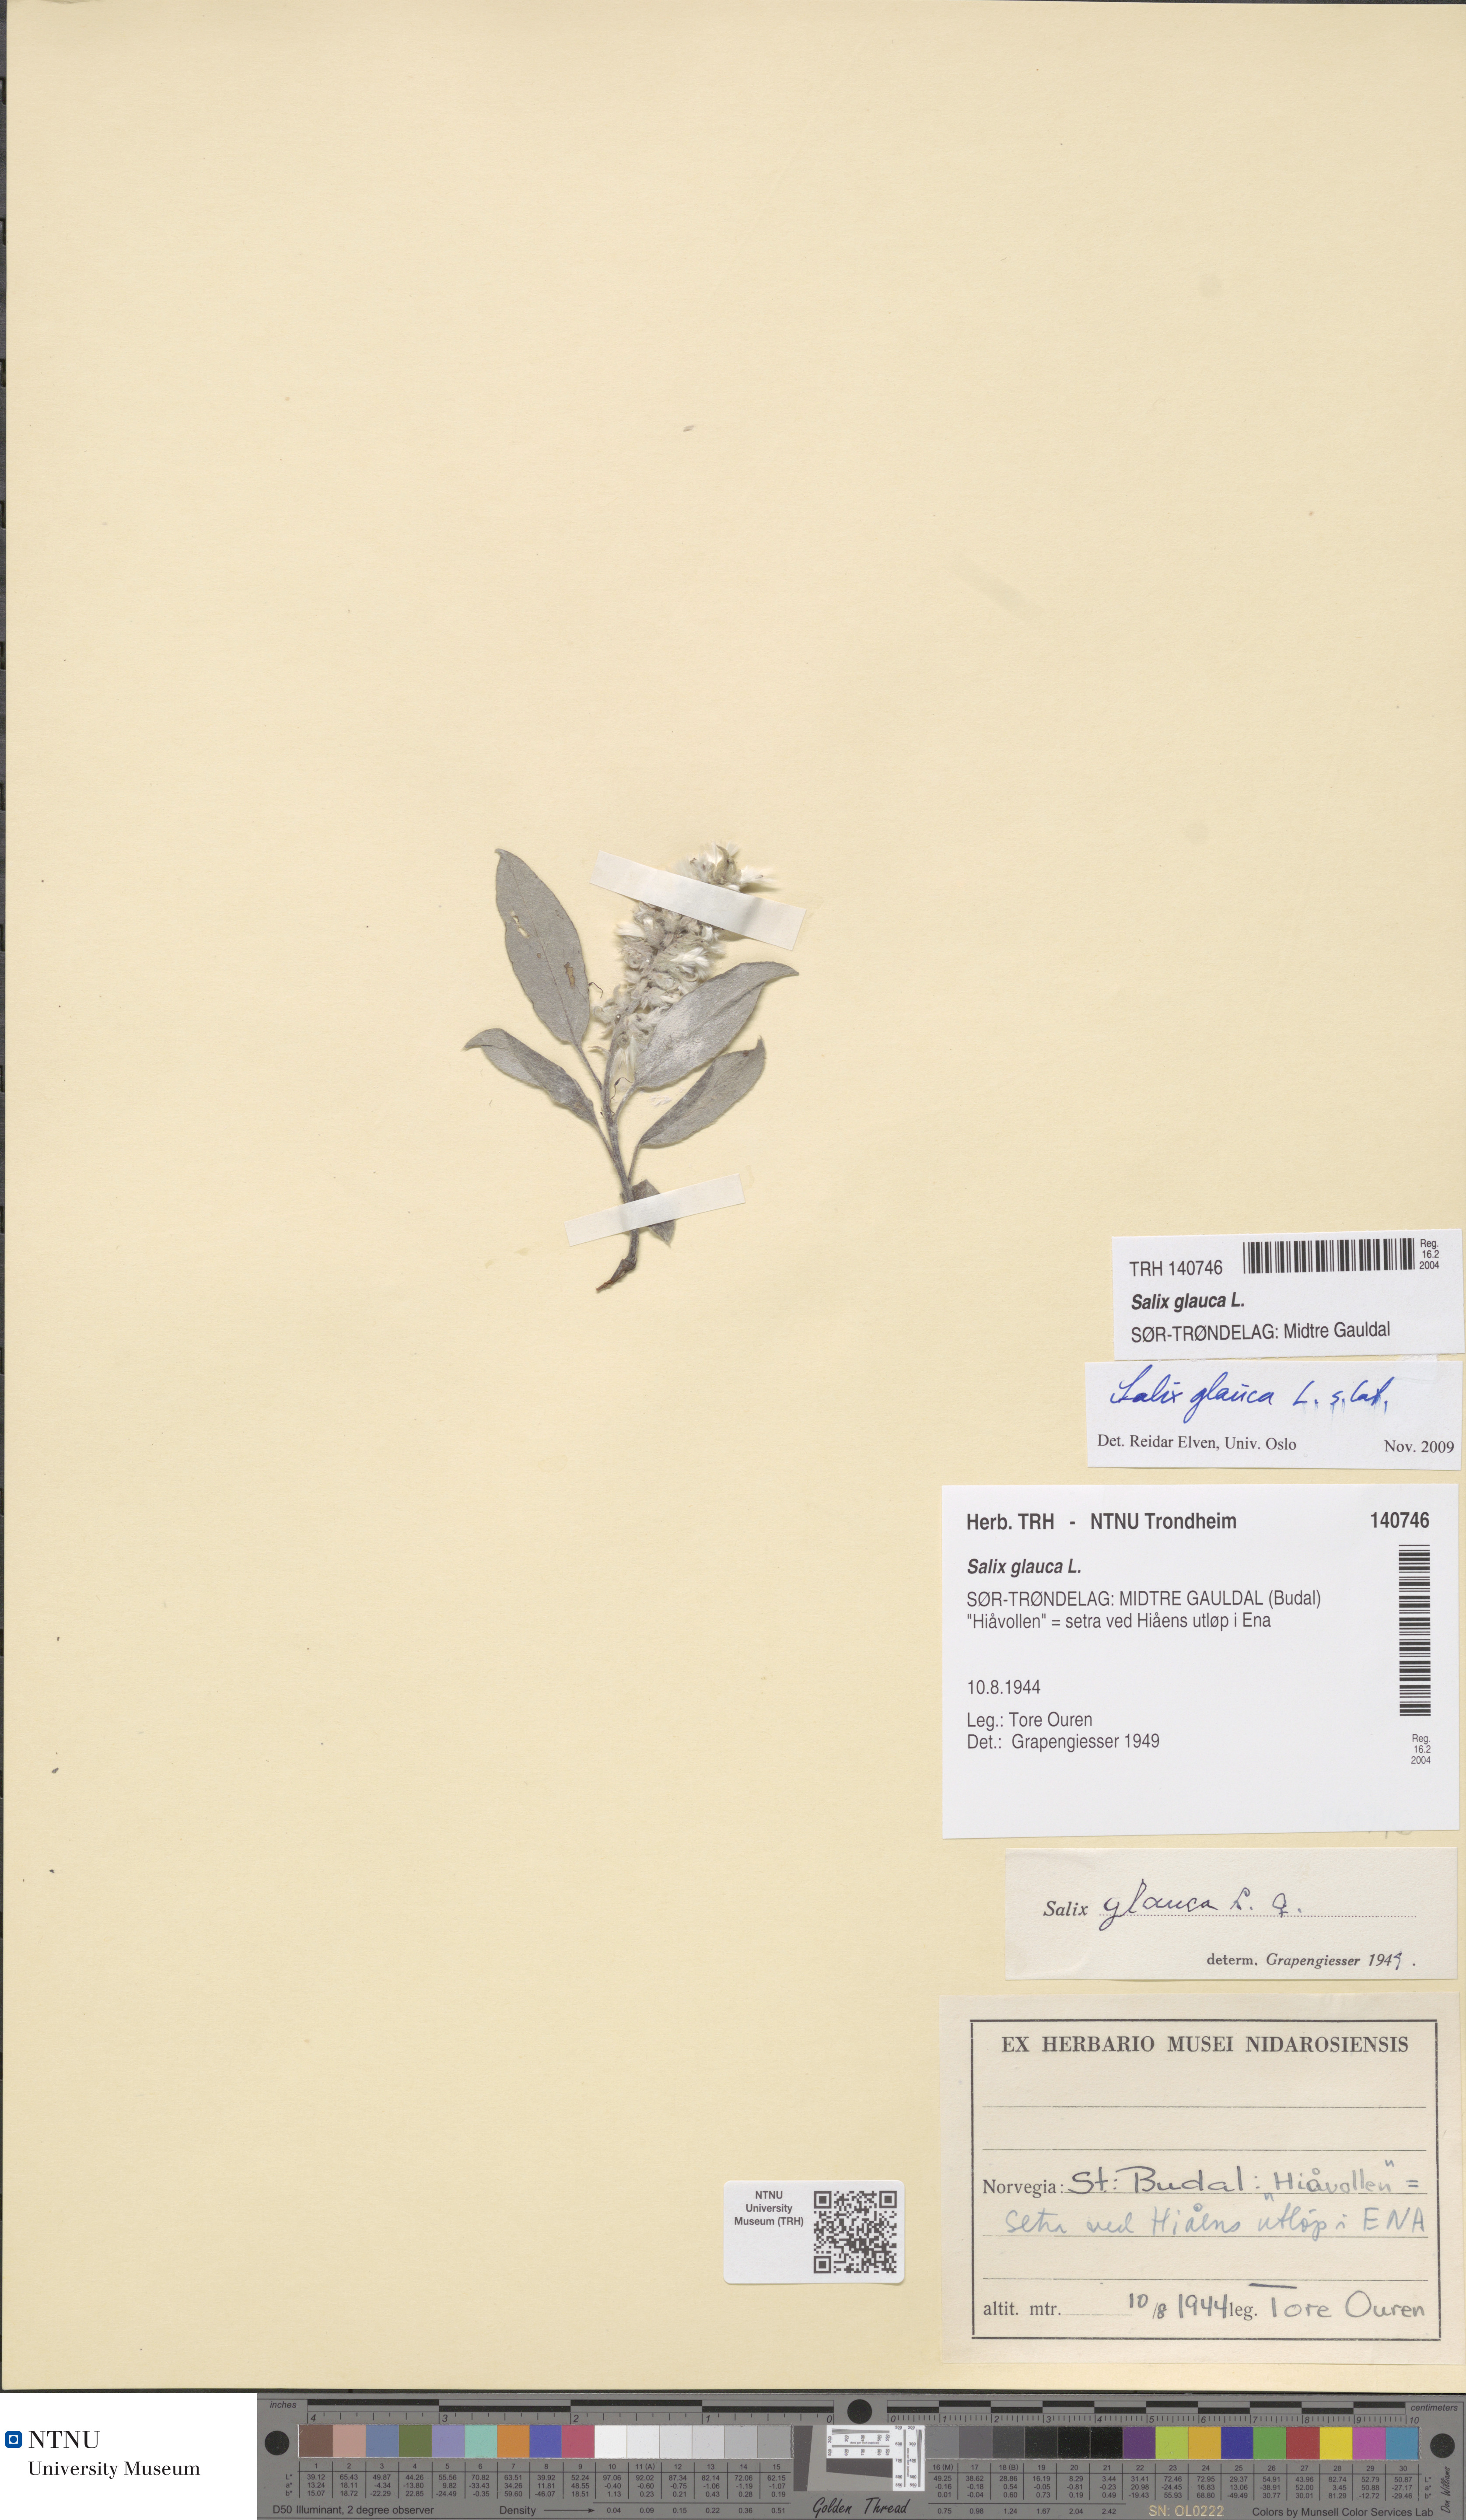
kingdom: Plantae
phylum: Tracheophyta
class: Magnoliopsida
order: Malpighiales
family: Salicaceae
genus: Salix
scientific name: Salix glauca
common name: Glaucous willow
